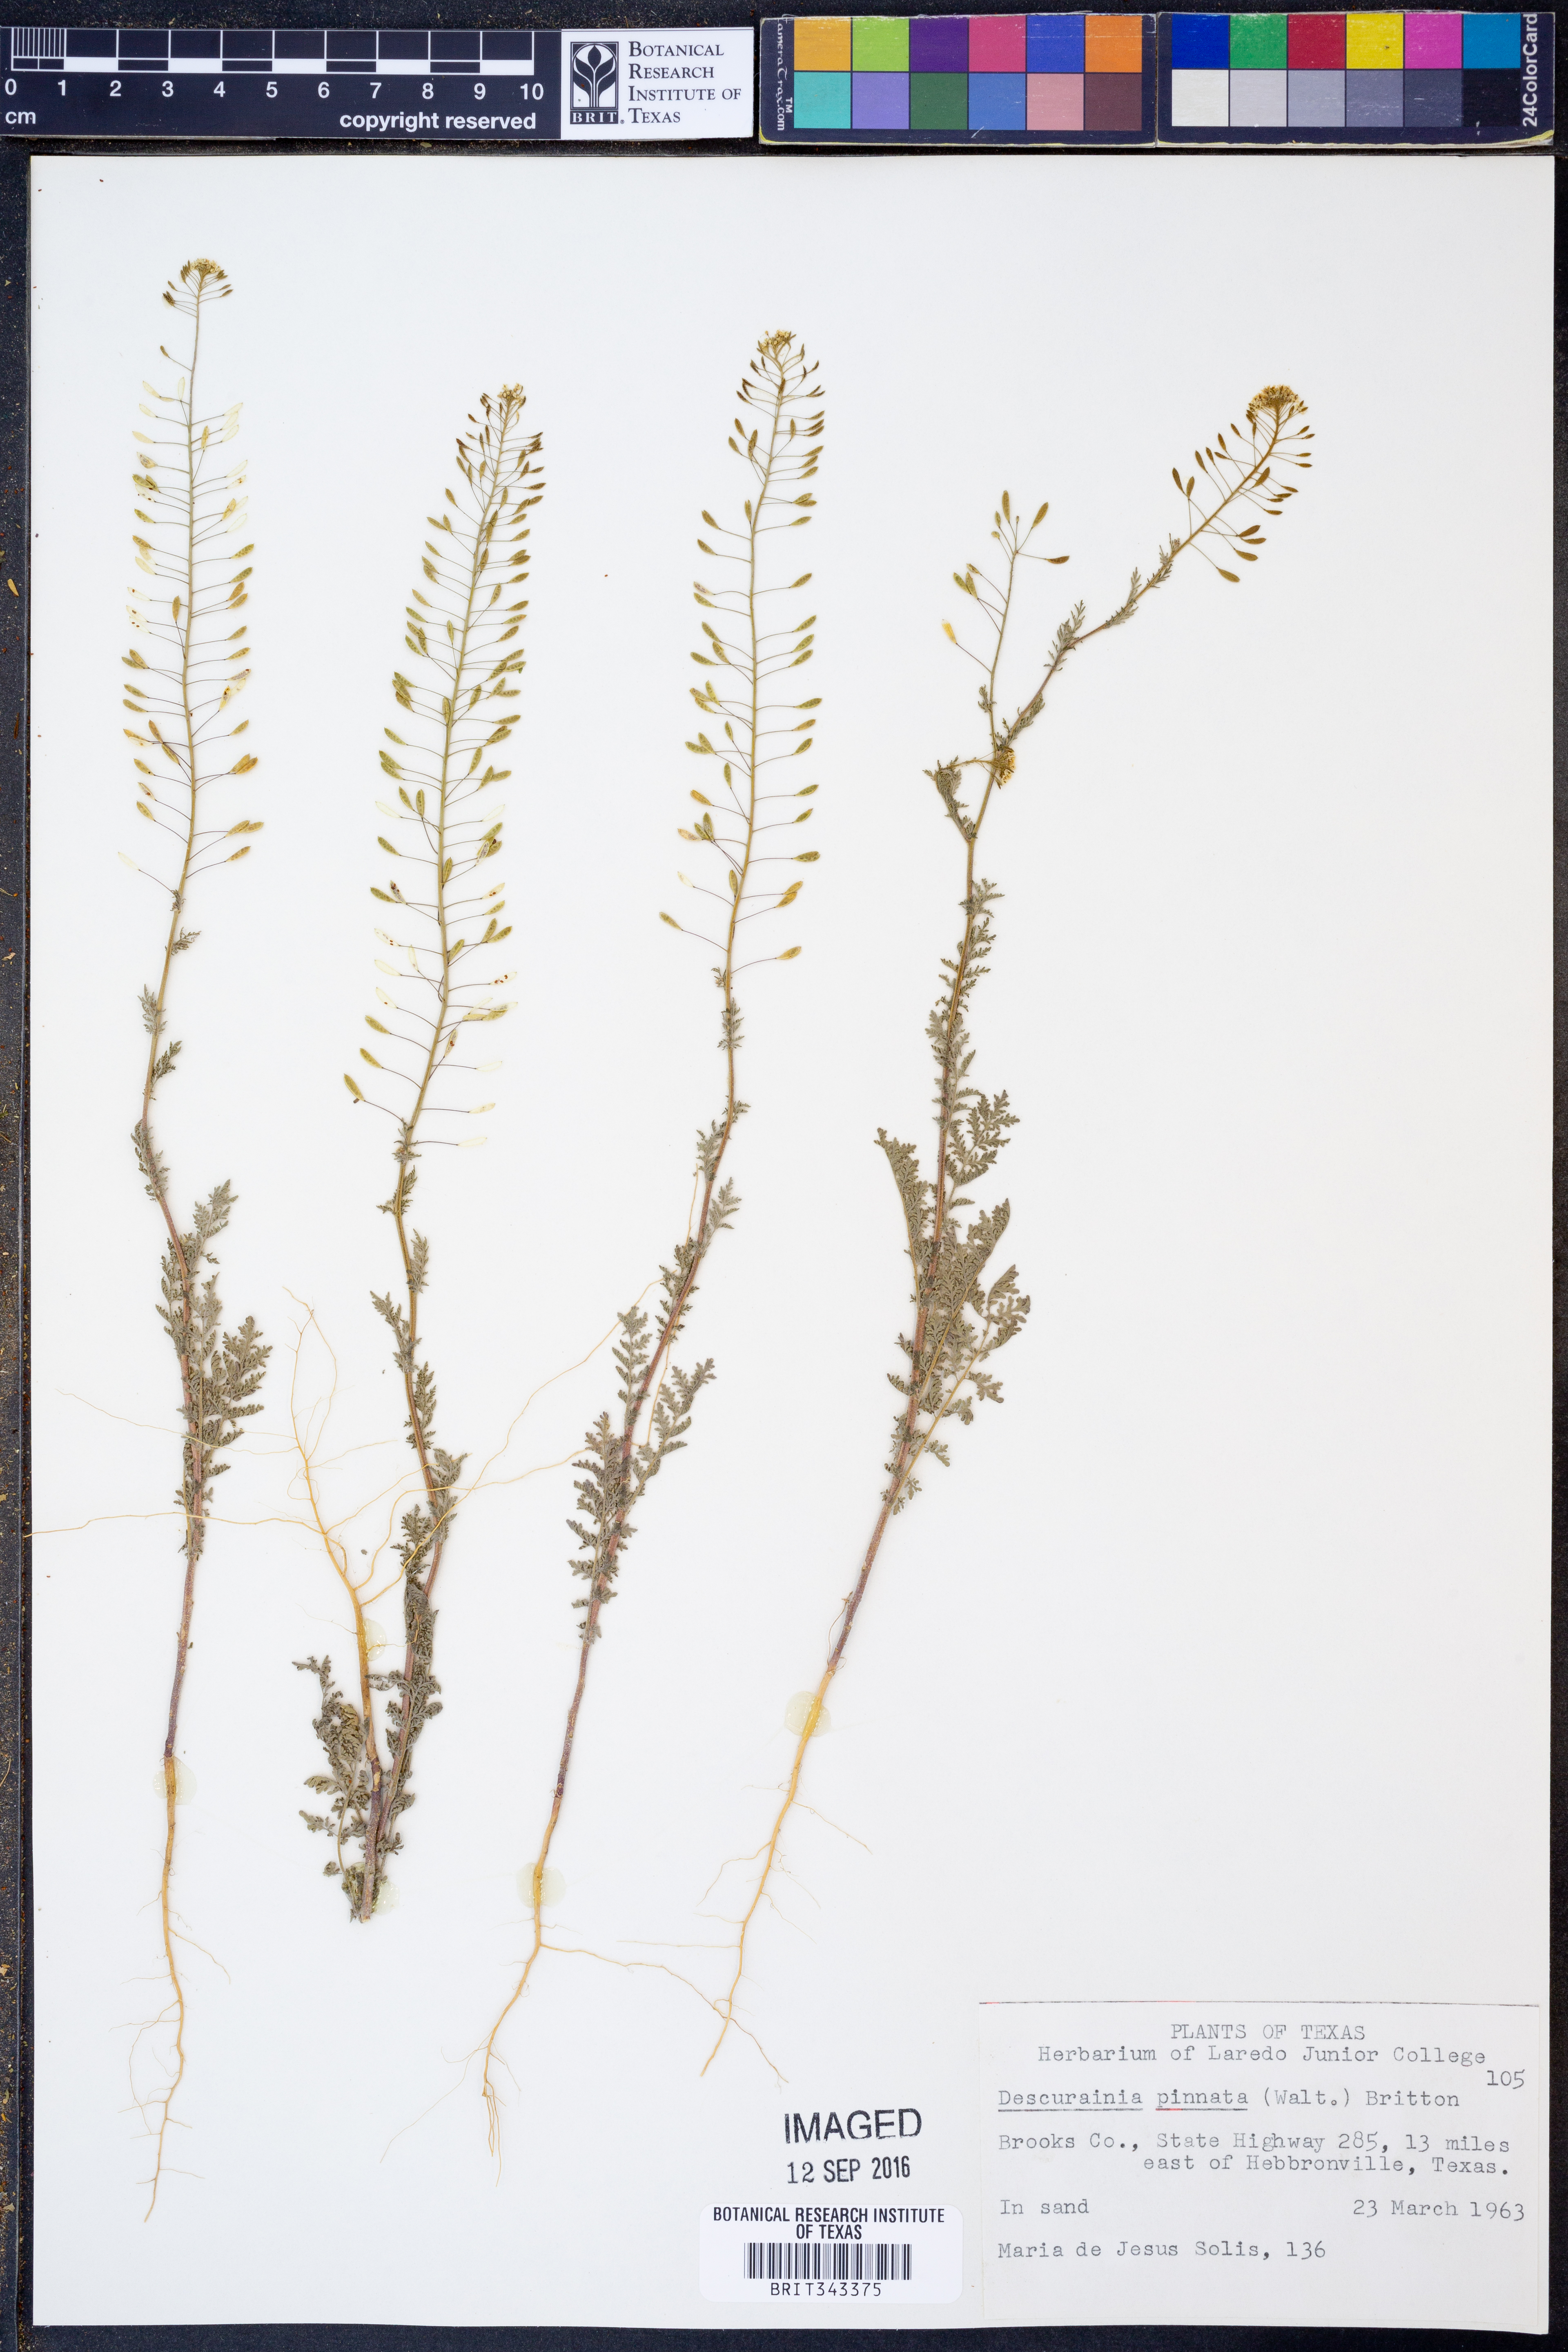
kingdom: Plantae
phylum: Tracheophyta
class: Magnoliopsida
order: Brassicales
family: Brassicaceae
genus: Descurainia
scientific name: Descurainia pinnata
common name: Western tansy mustard
